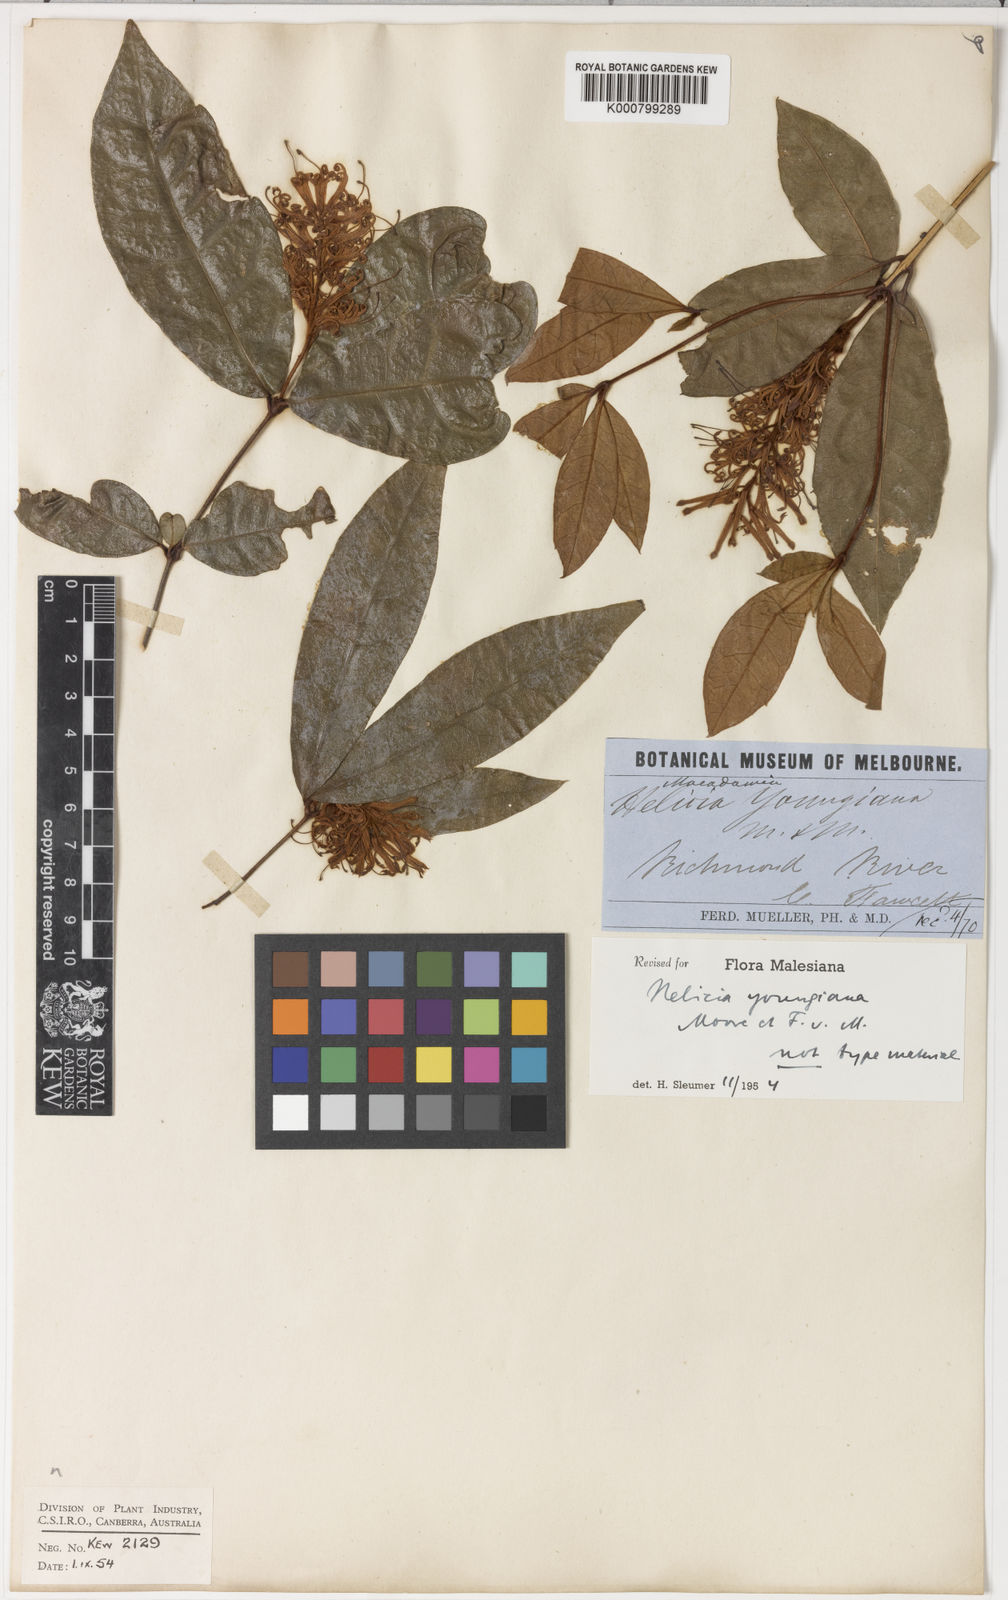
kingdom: Plantae
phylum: Tracheophyta
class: Magnoliopsida
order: Proteales
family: Proteaceae
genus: Triunia
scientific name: Triunia youngiana
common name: Rednut
